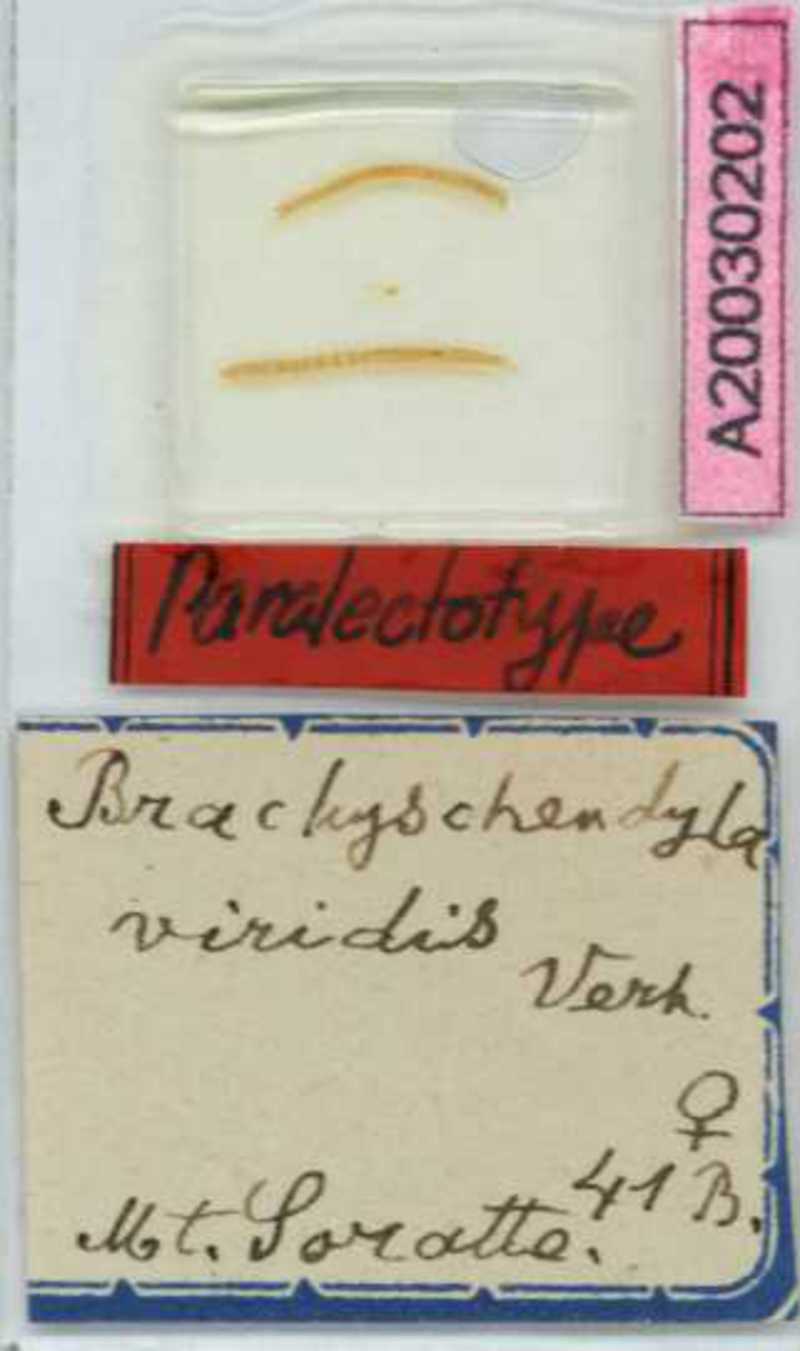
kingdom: Animalia
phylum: Arthropoda
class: Chilopoda
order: Geophilomorpha
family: Schendylidae
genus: Schendyla
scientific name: Schendyla
